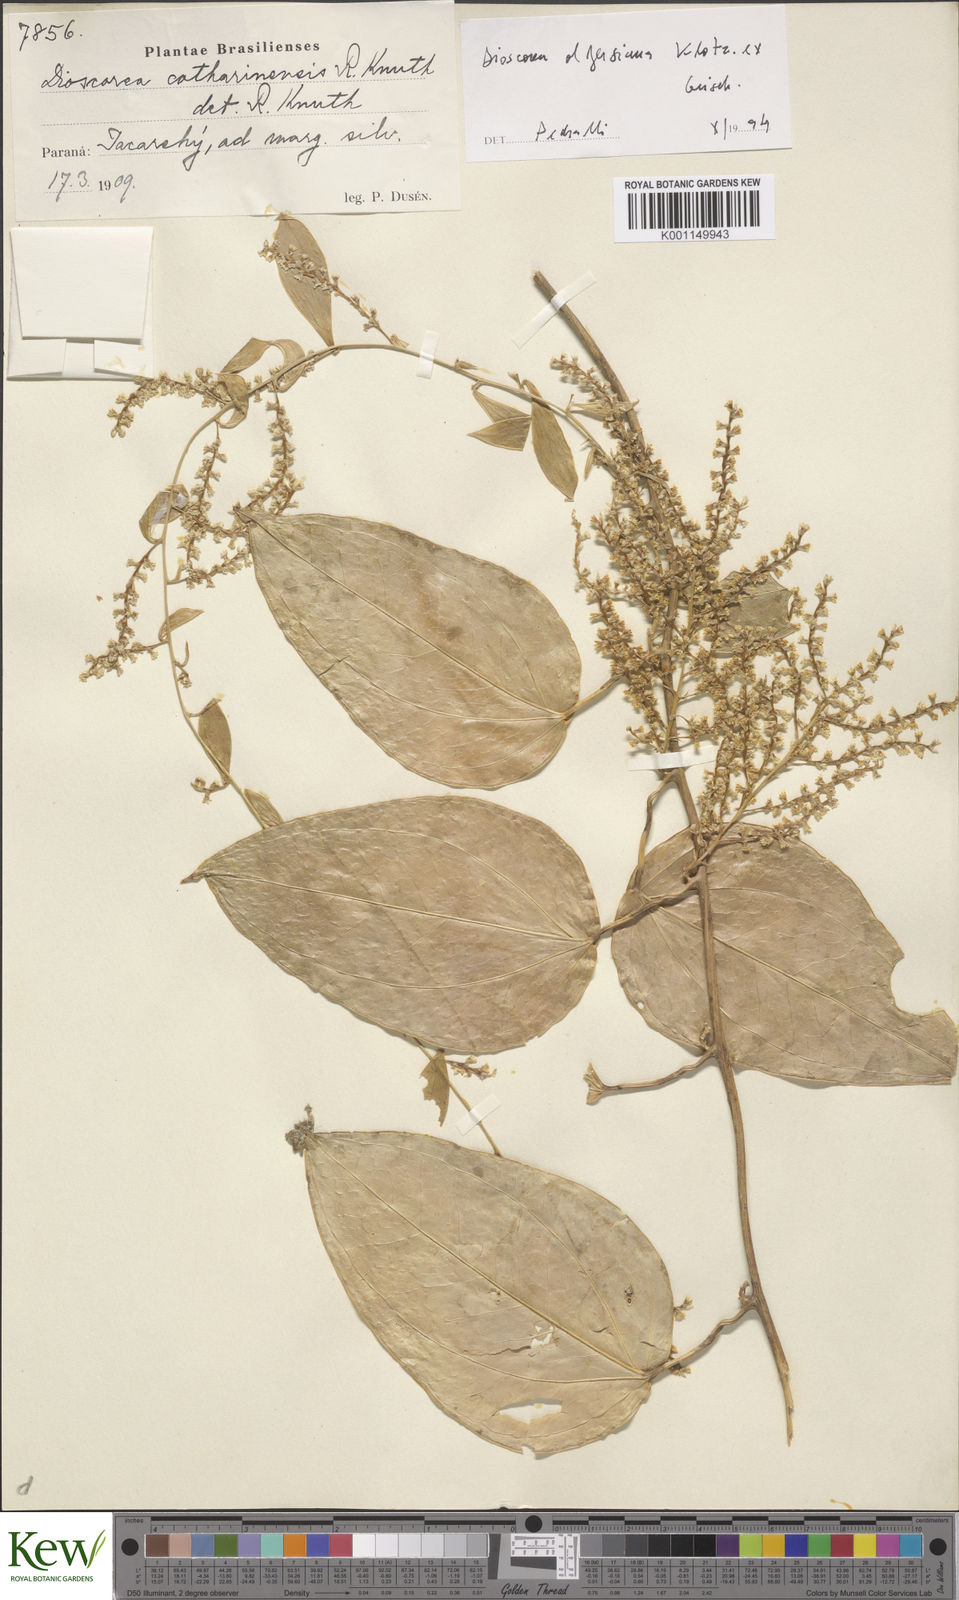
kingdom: Plantae
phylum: Tracheophyta
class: Liliopsida
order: Dioscoreales
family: Dioscoreaceae
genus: Dioscorea
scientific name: Dioscorea olfersiana
